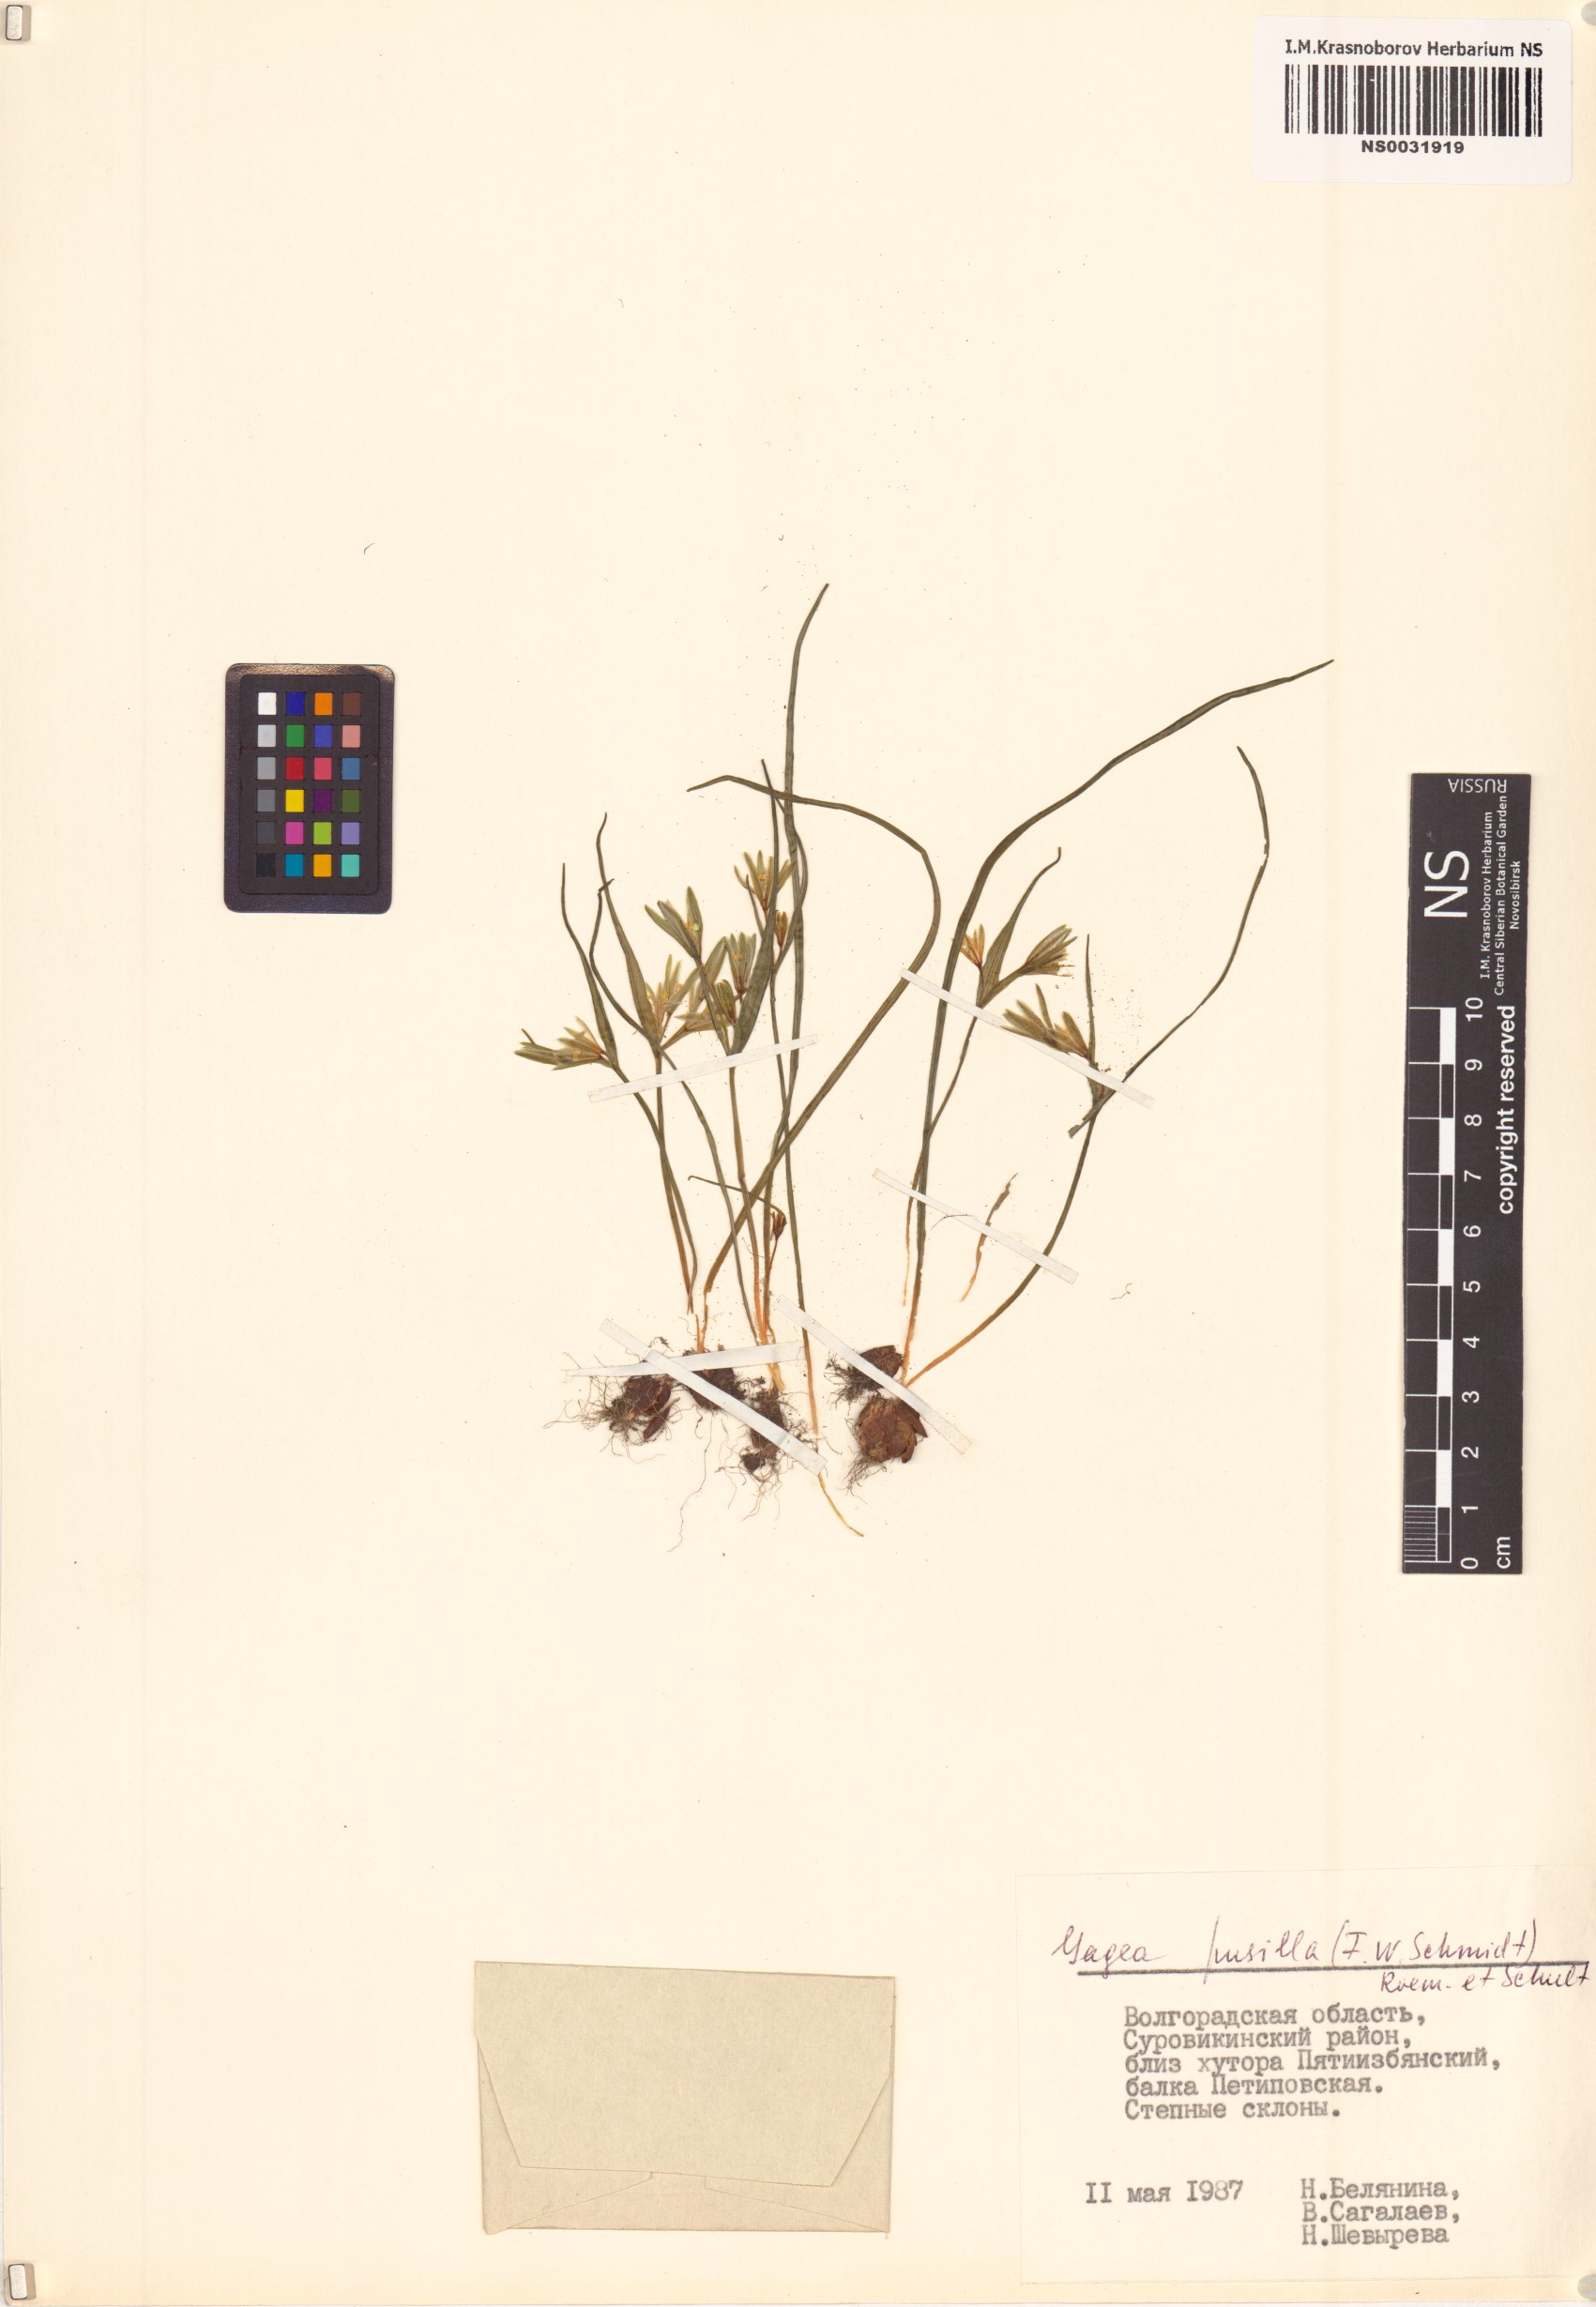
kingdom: Plantae
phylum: Tracheophyta
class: Liliopsida
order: Liliales
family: Liliaceae
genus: Gagea
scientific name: Gagea pusilla
